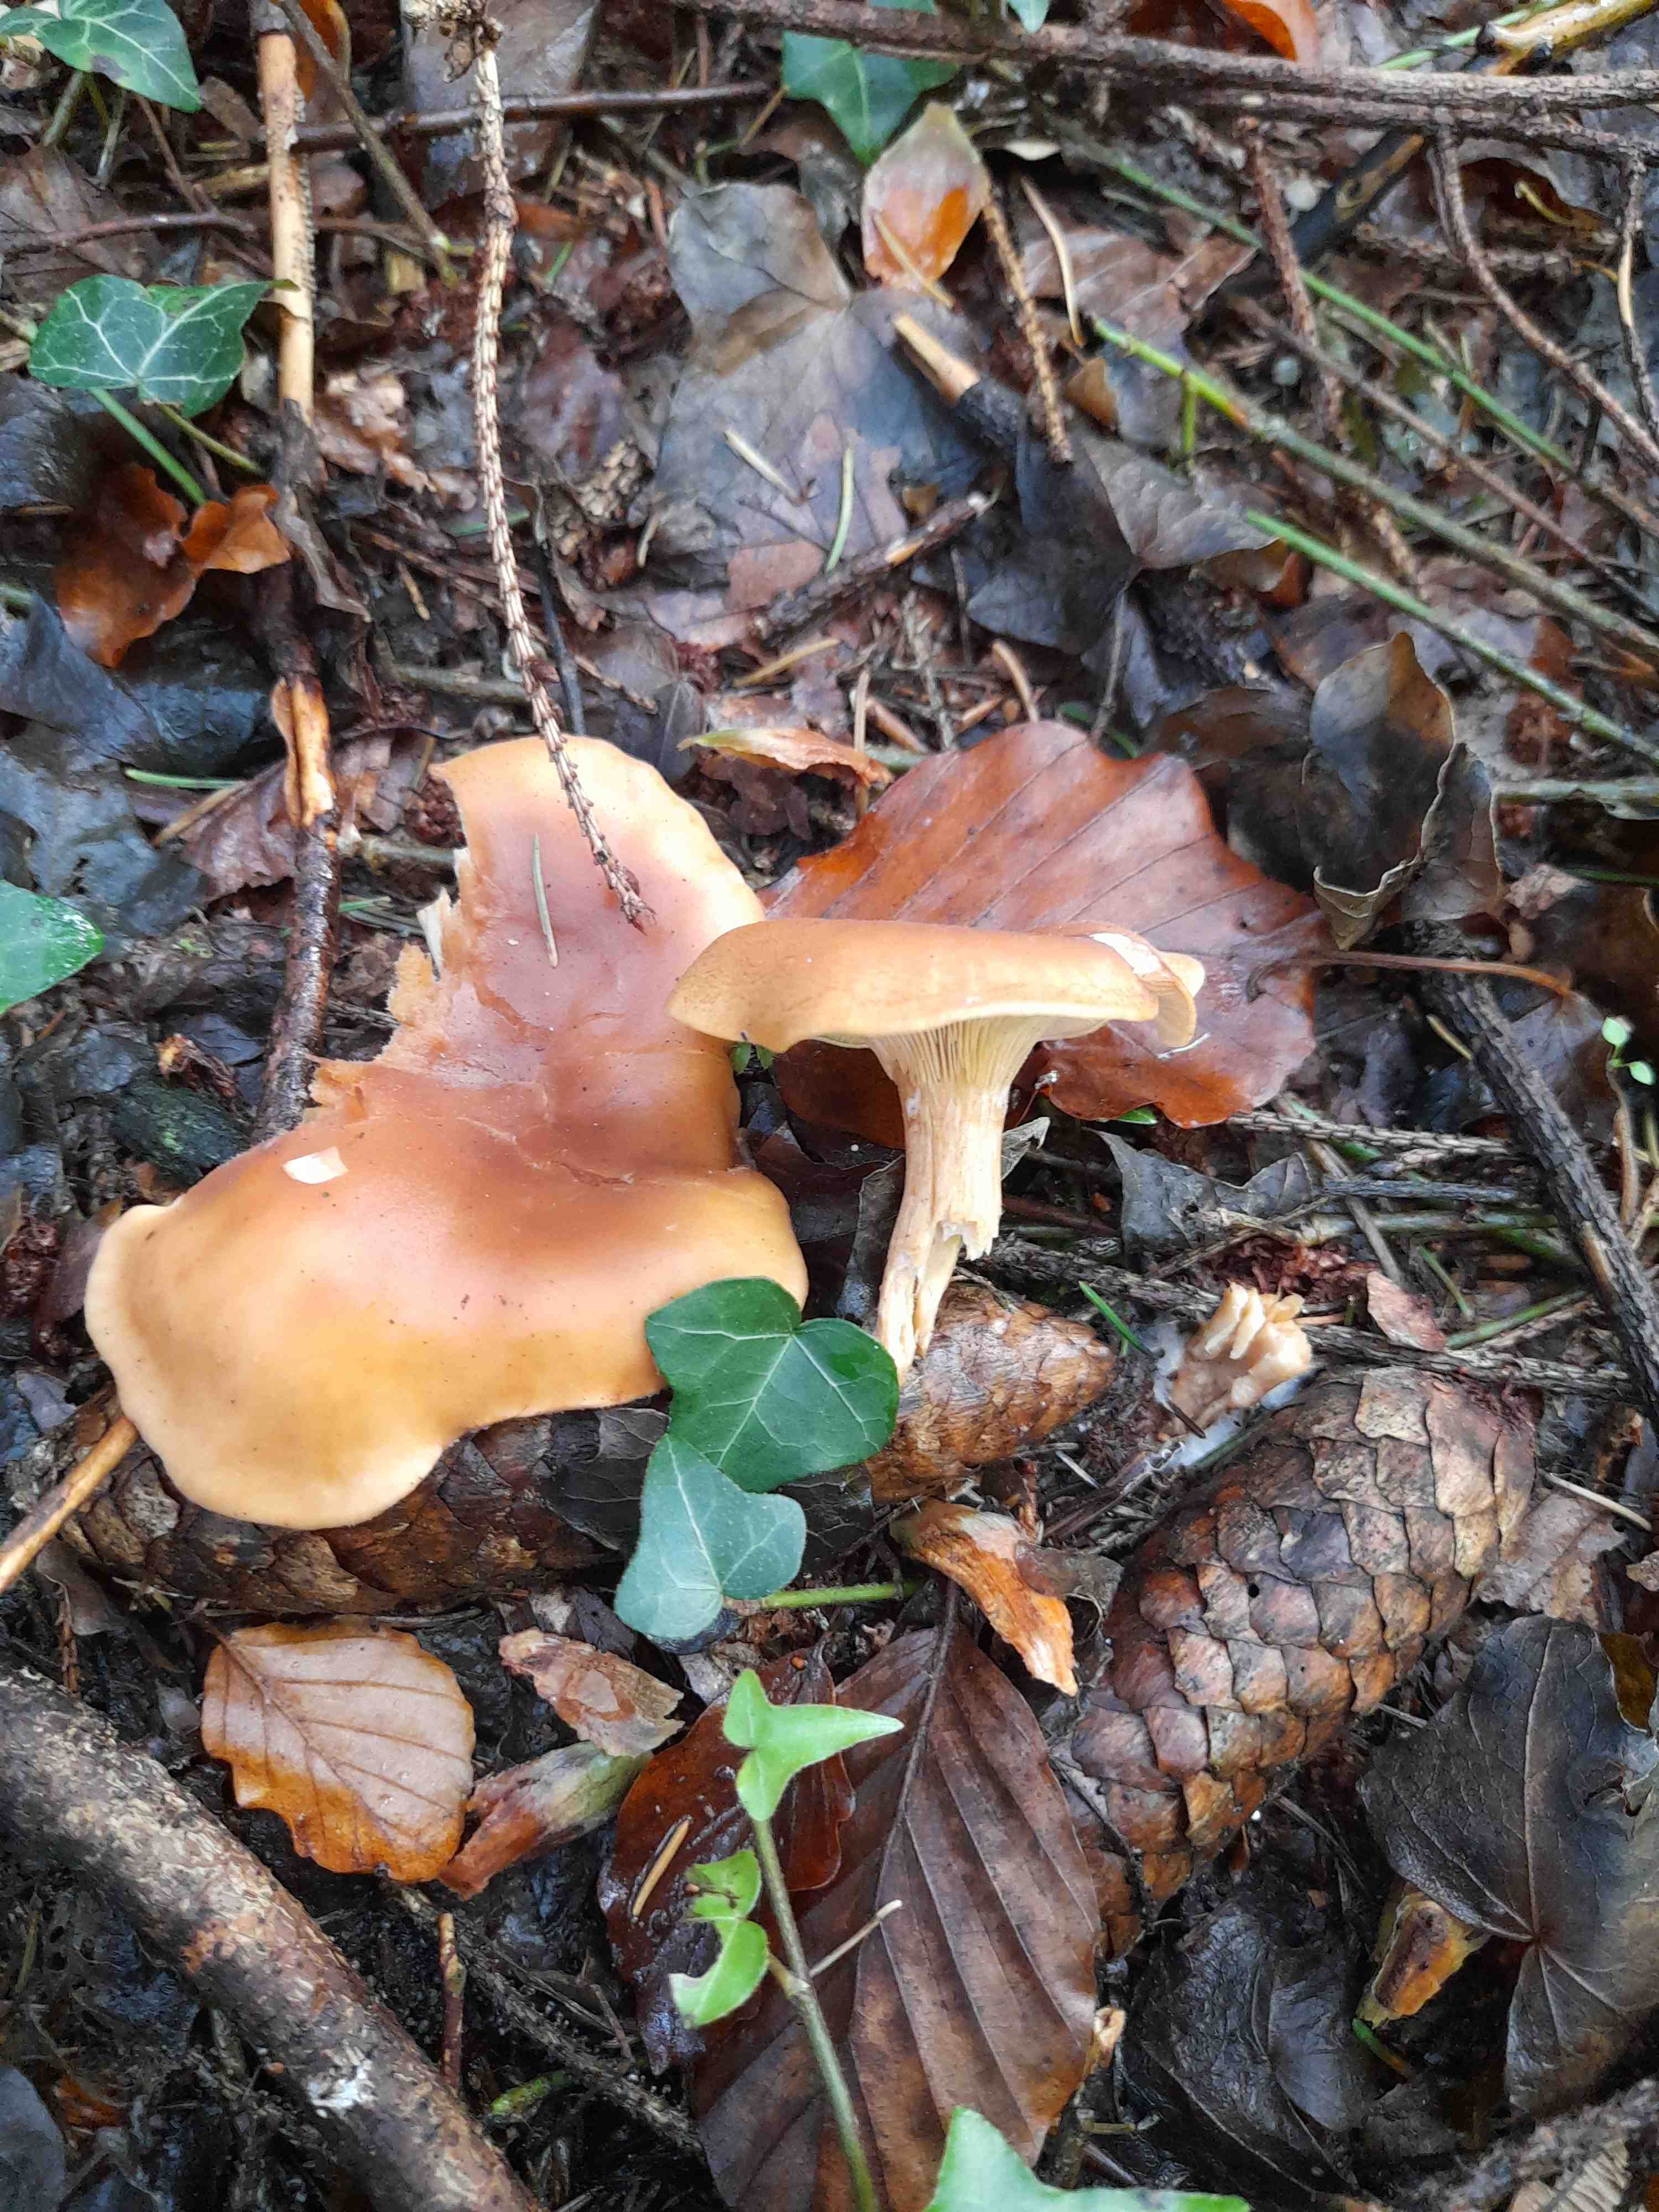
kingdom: Fungi
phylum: Basidiomycota
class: Agaricomycetes
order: Agaricales
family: Tricholomataceae
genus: Paralepista
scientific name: Paralepista flaccida
